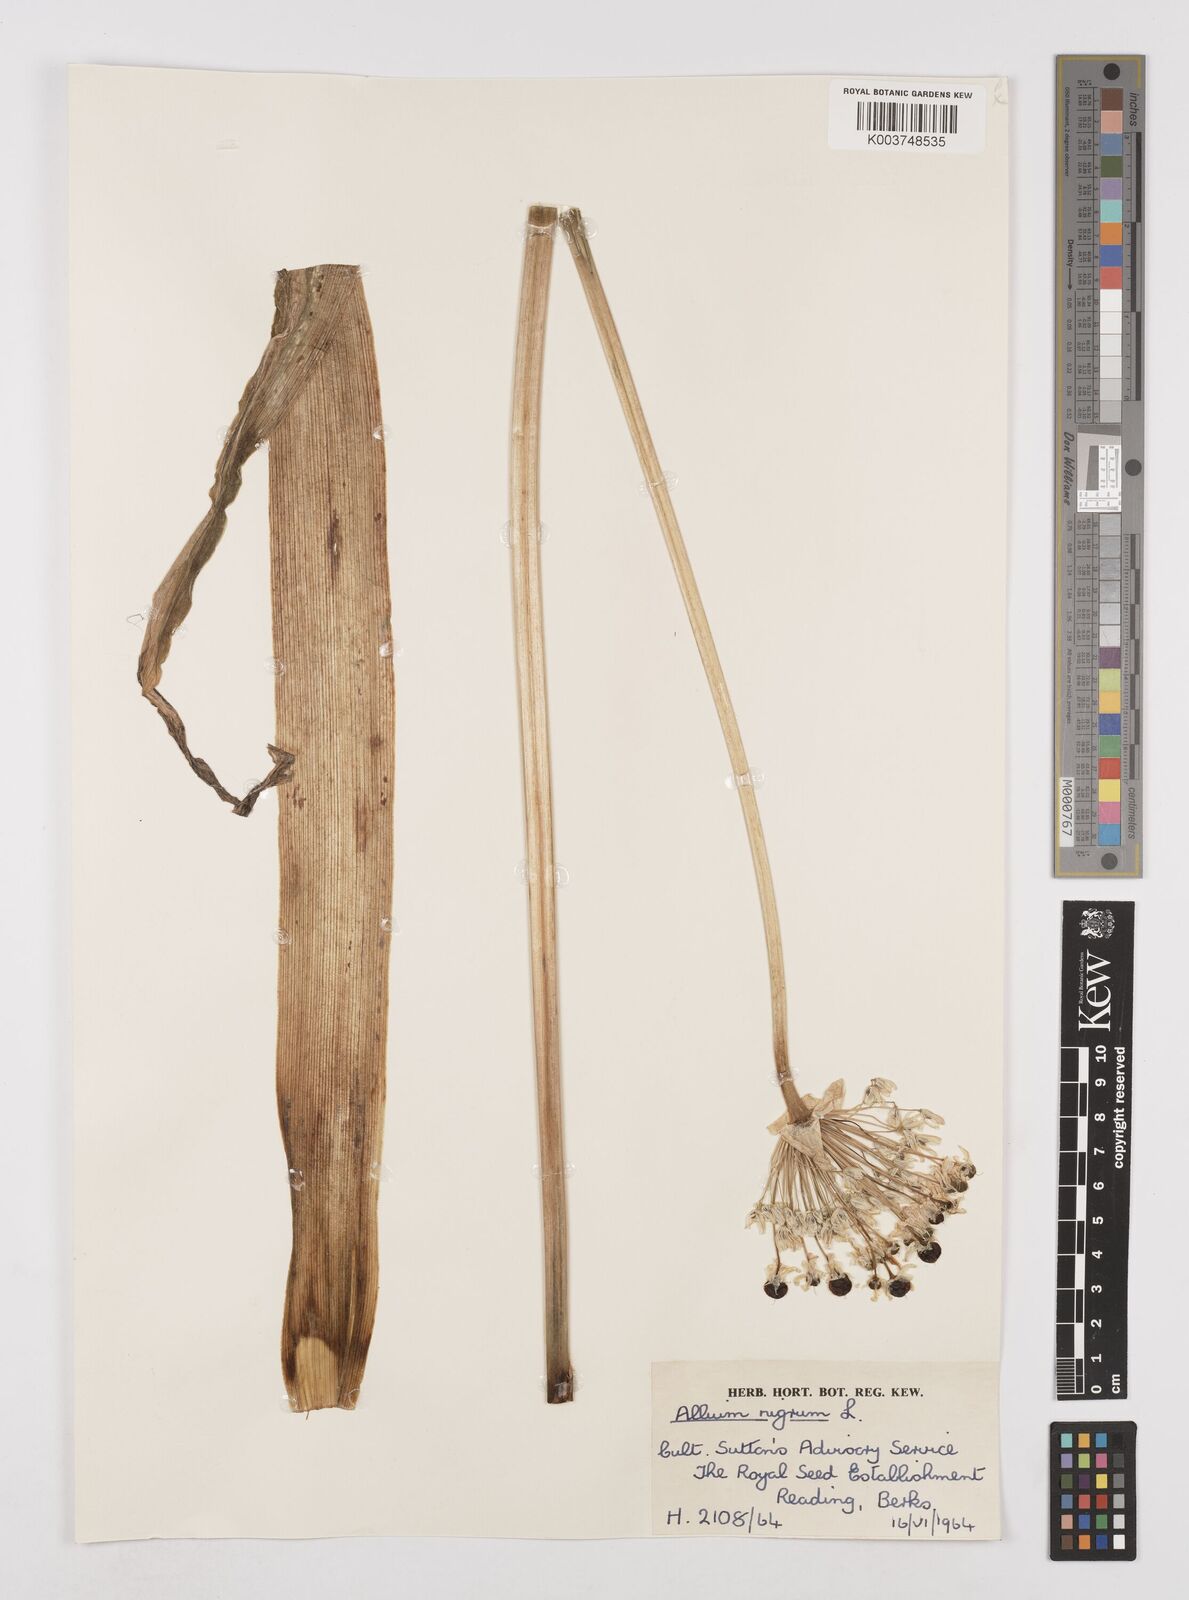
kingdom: Plantae
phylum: Tracheophyta
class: Liliopsida
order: Asparagales
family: Amaryllidaceae
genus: Allium
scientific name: Allium nigrum
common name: Black garlic
